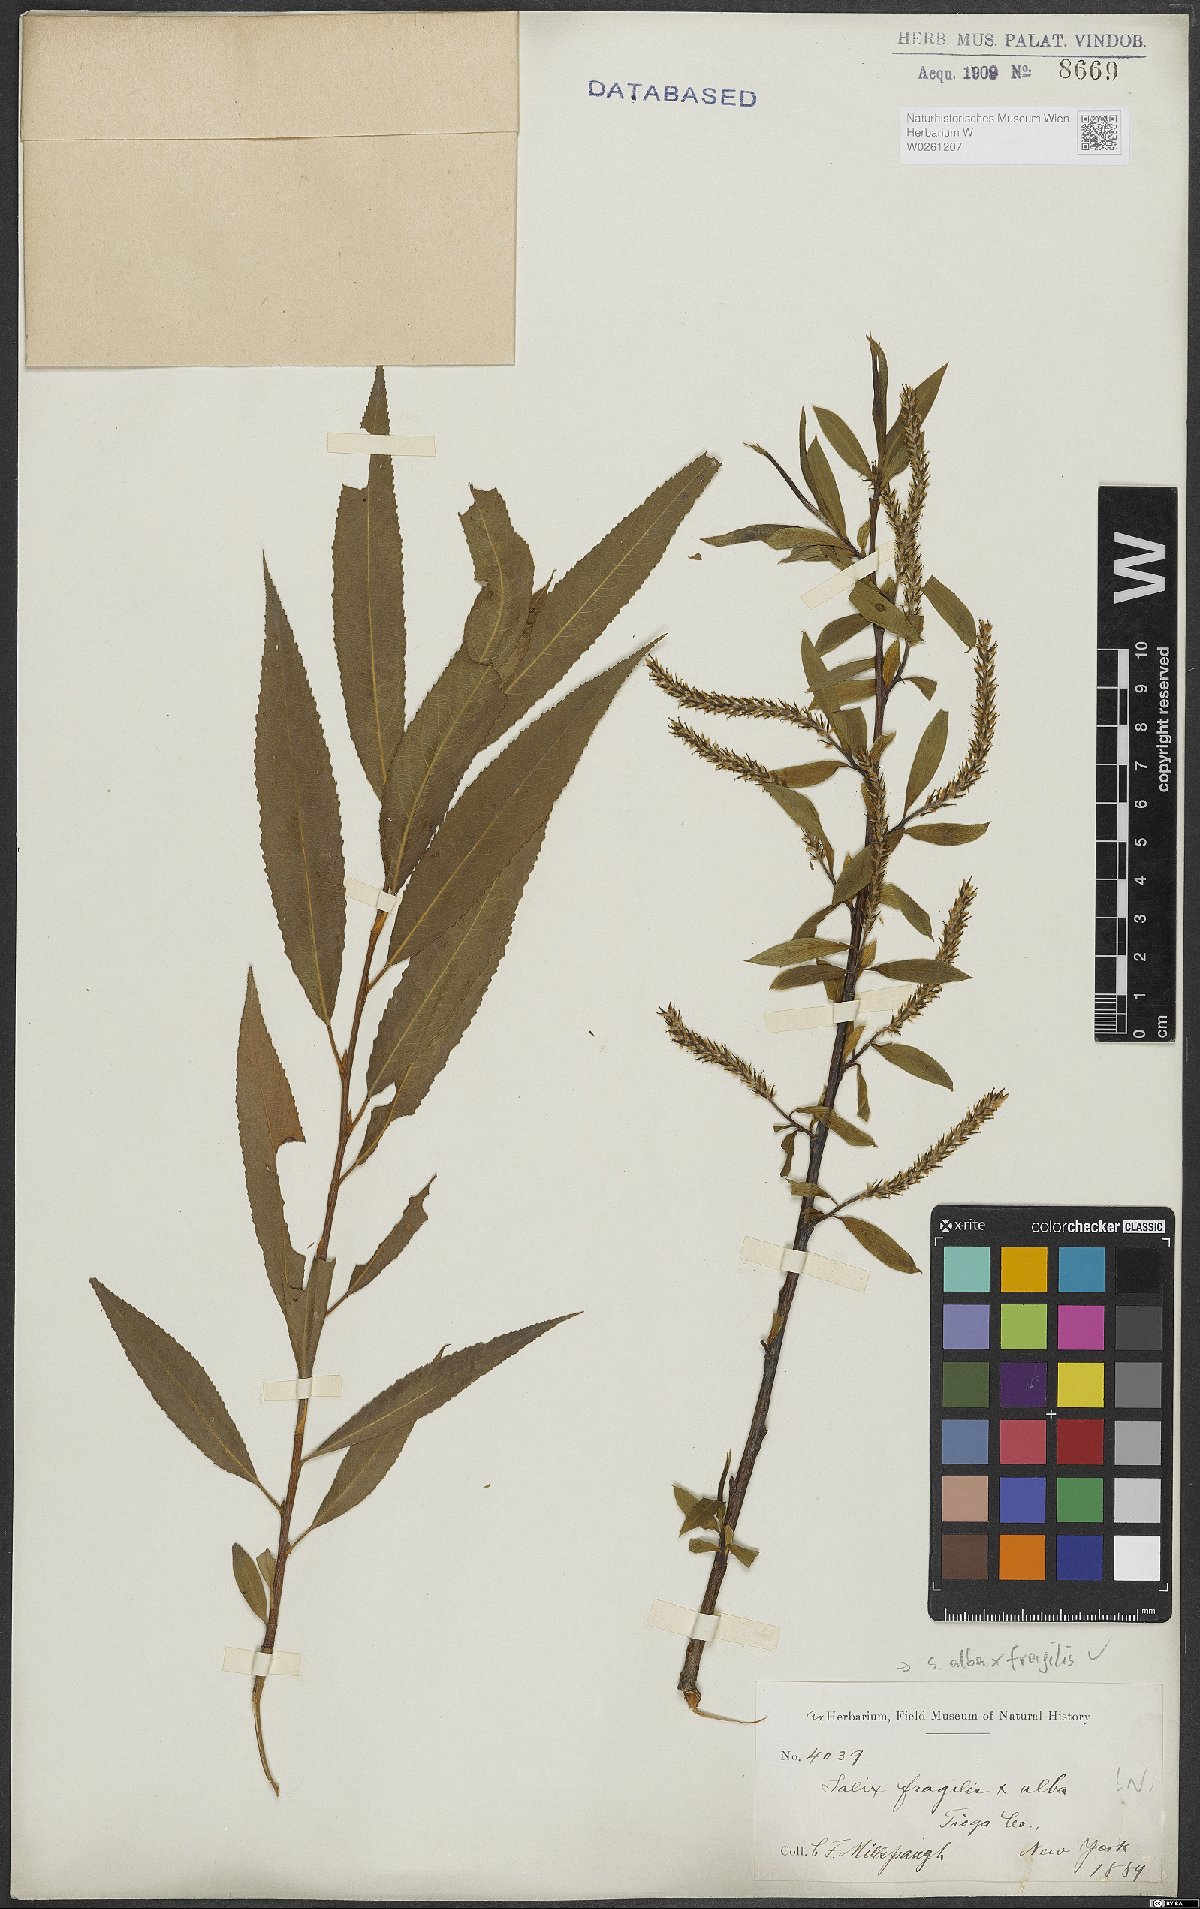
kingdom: Plantae
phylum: Tracheophyta
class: Magnoliopsida
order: Malpighiales
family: Salicaceae
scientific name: Salicaceae
